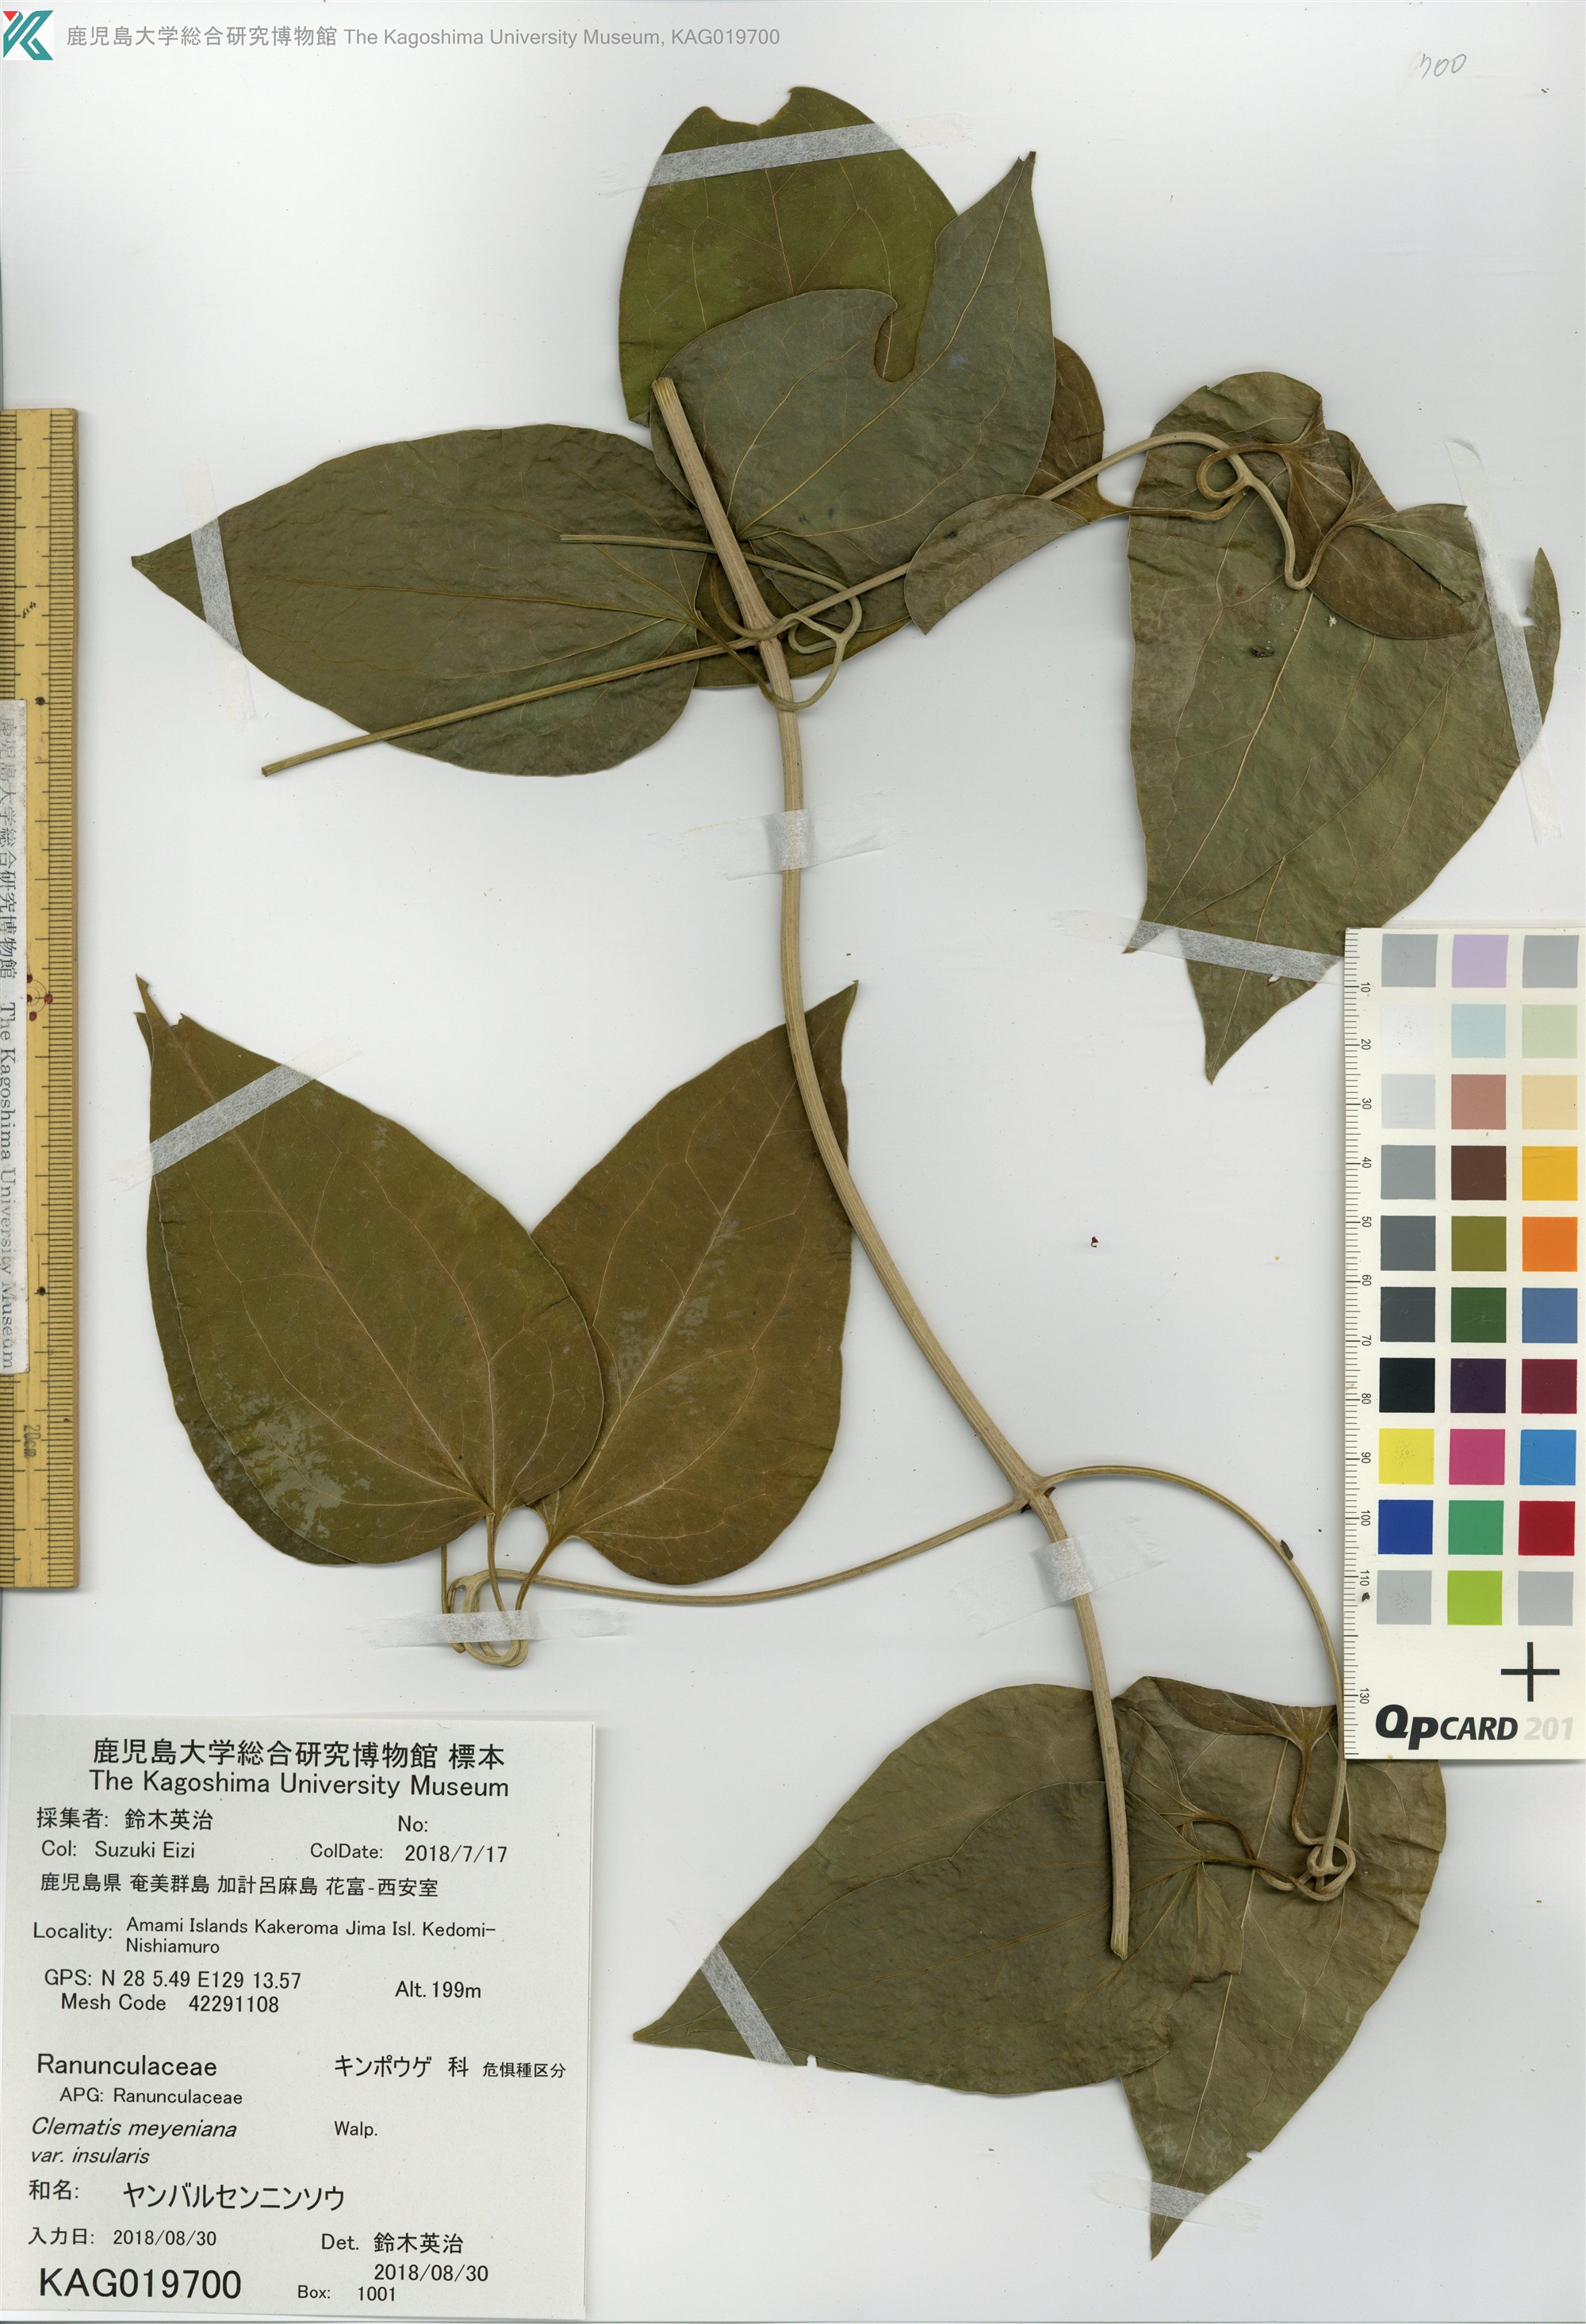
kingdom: Plantae
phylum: Tracheophyta
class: Magnoliopsida
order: Ranunculales
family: Ranunculaceae
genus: Clematis
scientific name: Clematis meyeniana
